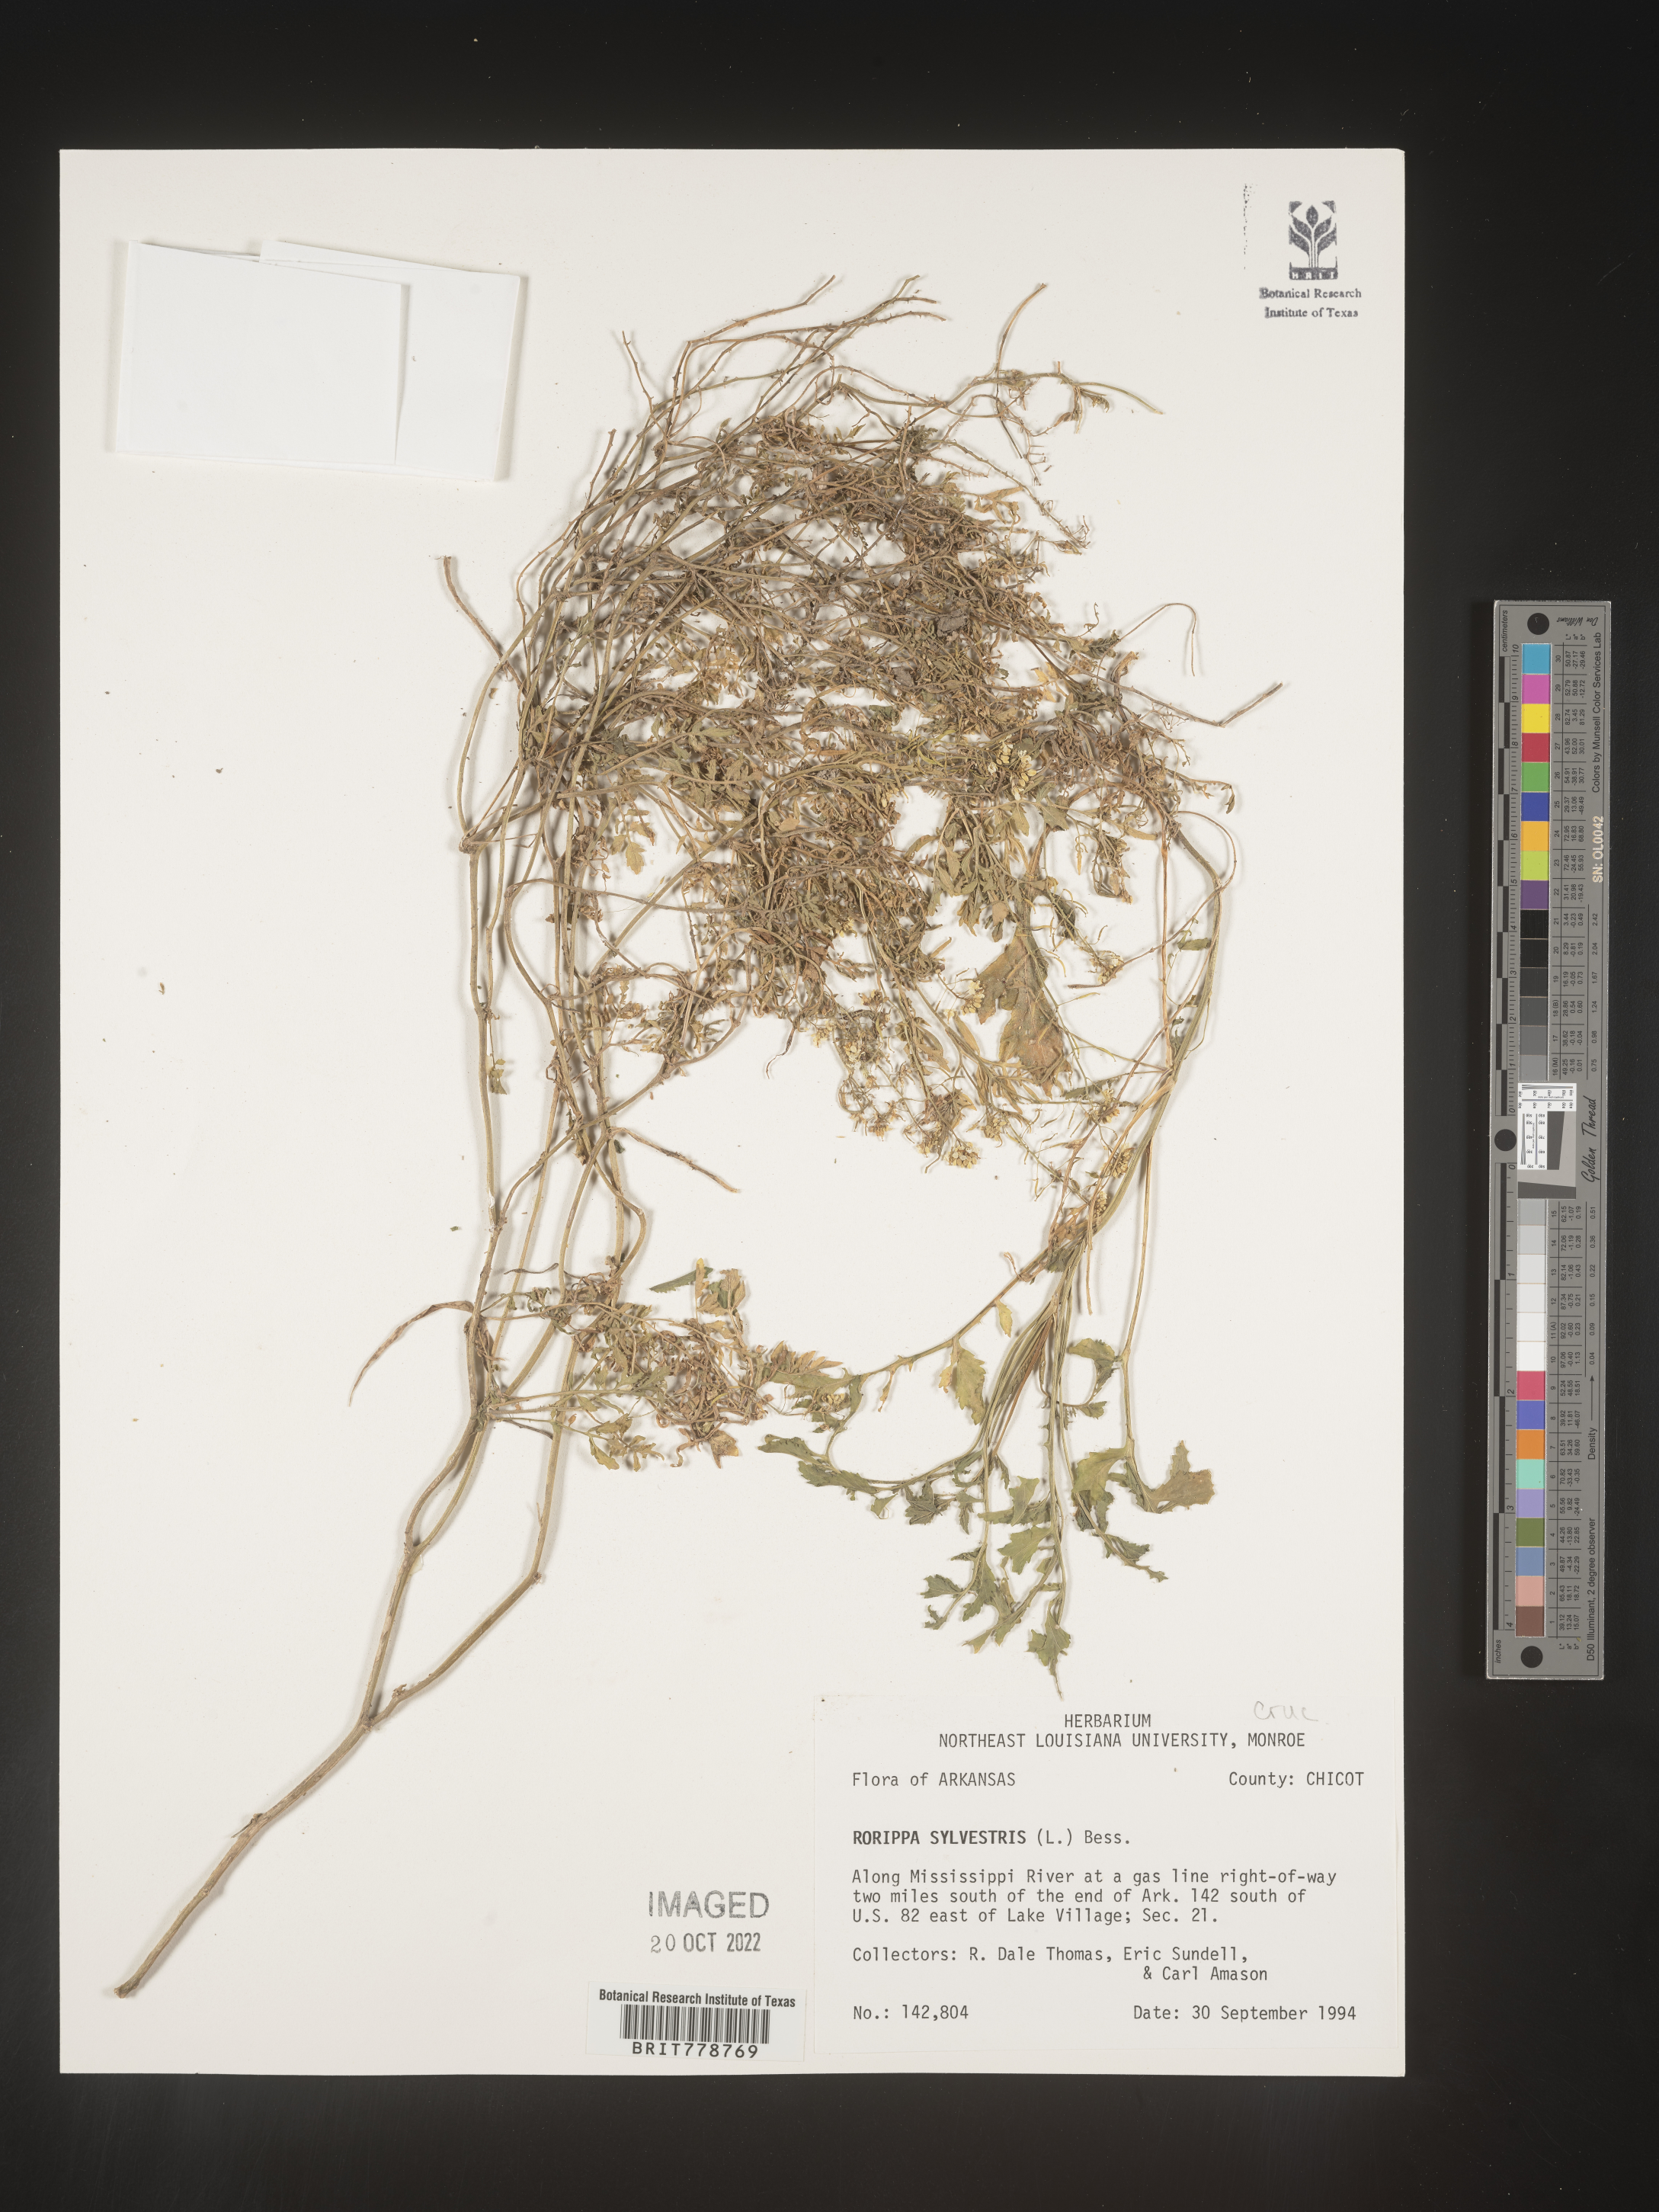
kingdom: Plantae
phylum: Tracheophyta
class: Magnoliopsida
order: Brassicales
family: Brassicaceae
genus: Rorippa
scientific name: Rorippa sylvestris
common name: Creeping yellowcress
